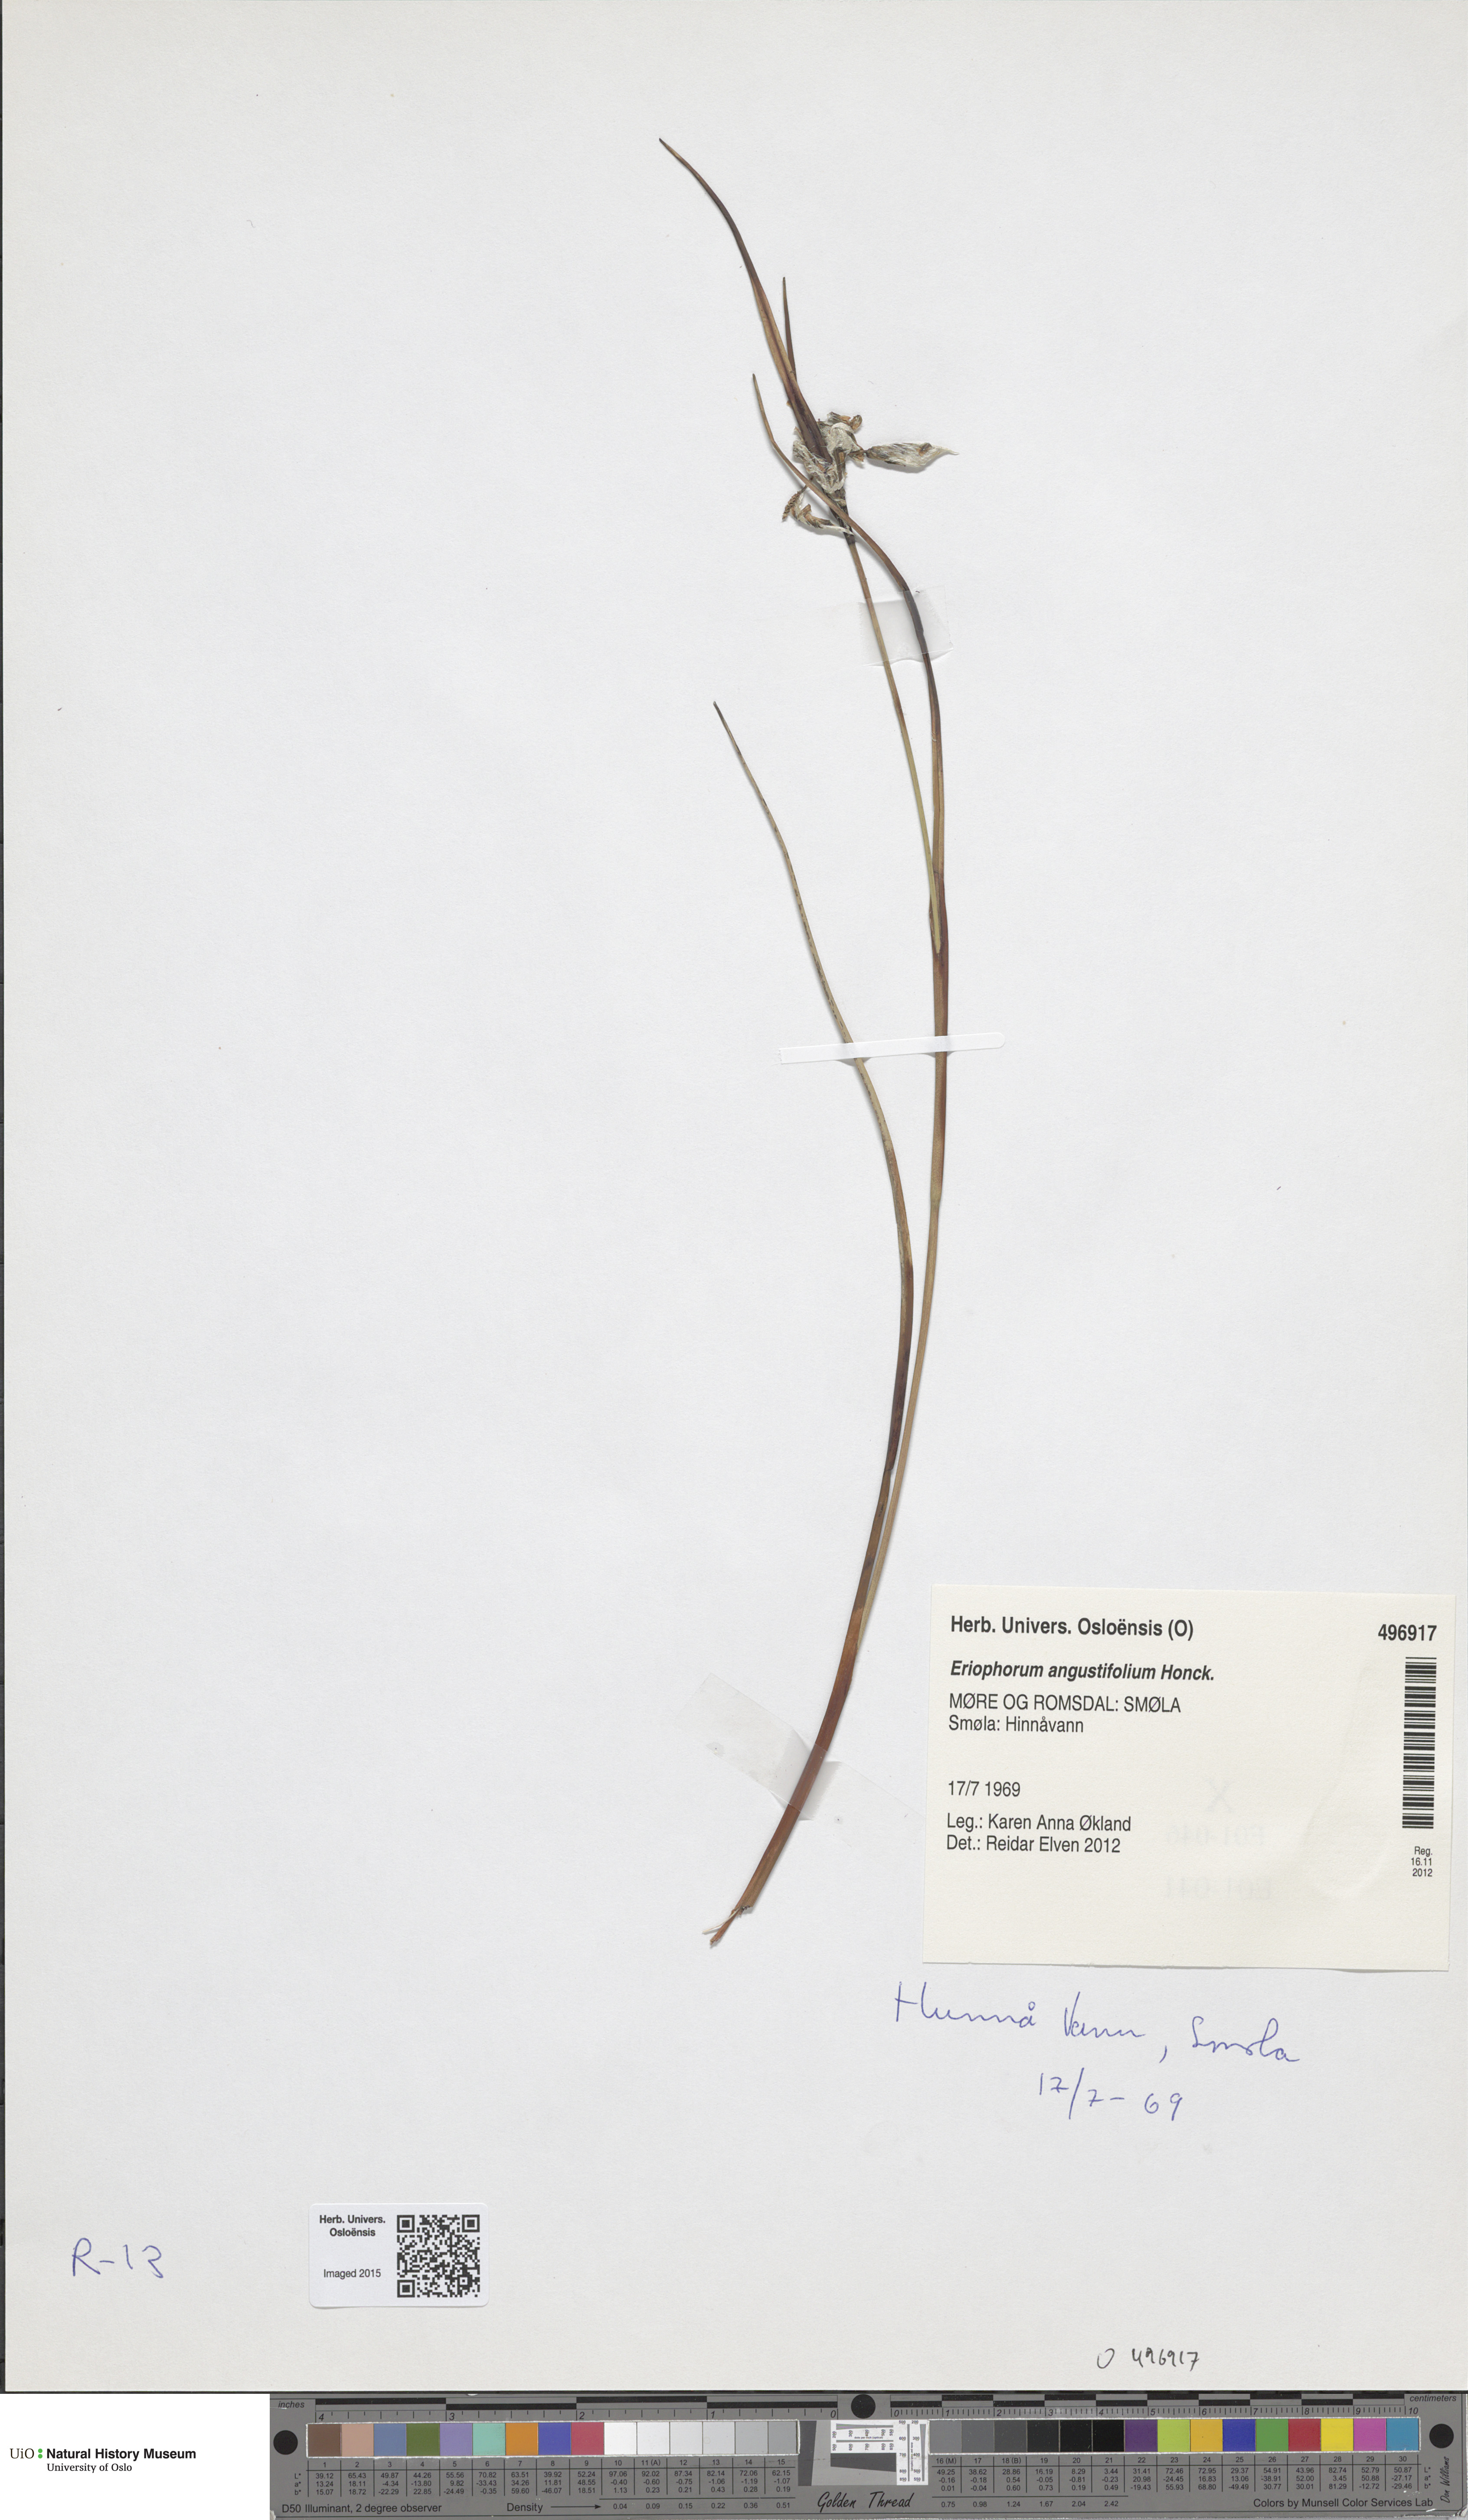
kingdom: Plantae
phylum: Tracheophyta
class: Liliopsida
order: Poales
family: Cyperaceae
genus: Eriophorum
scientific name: Eriophorum angustifolium
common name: Common cottongrass
